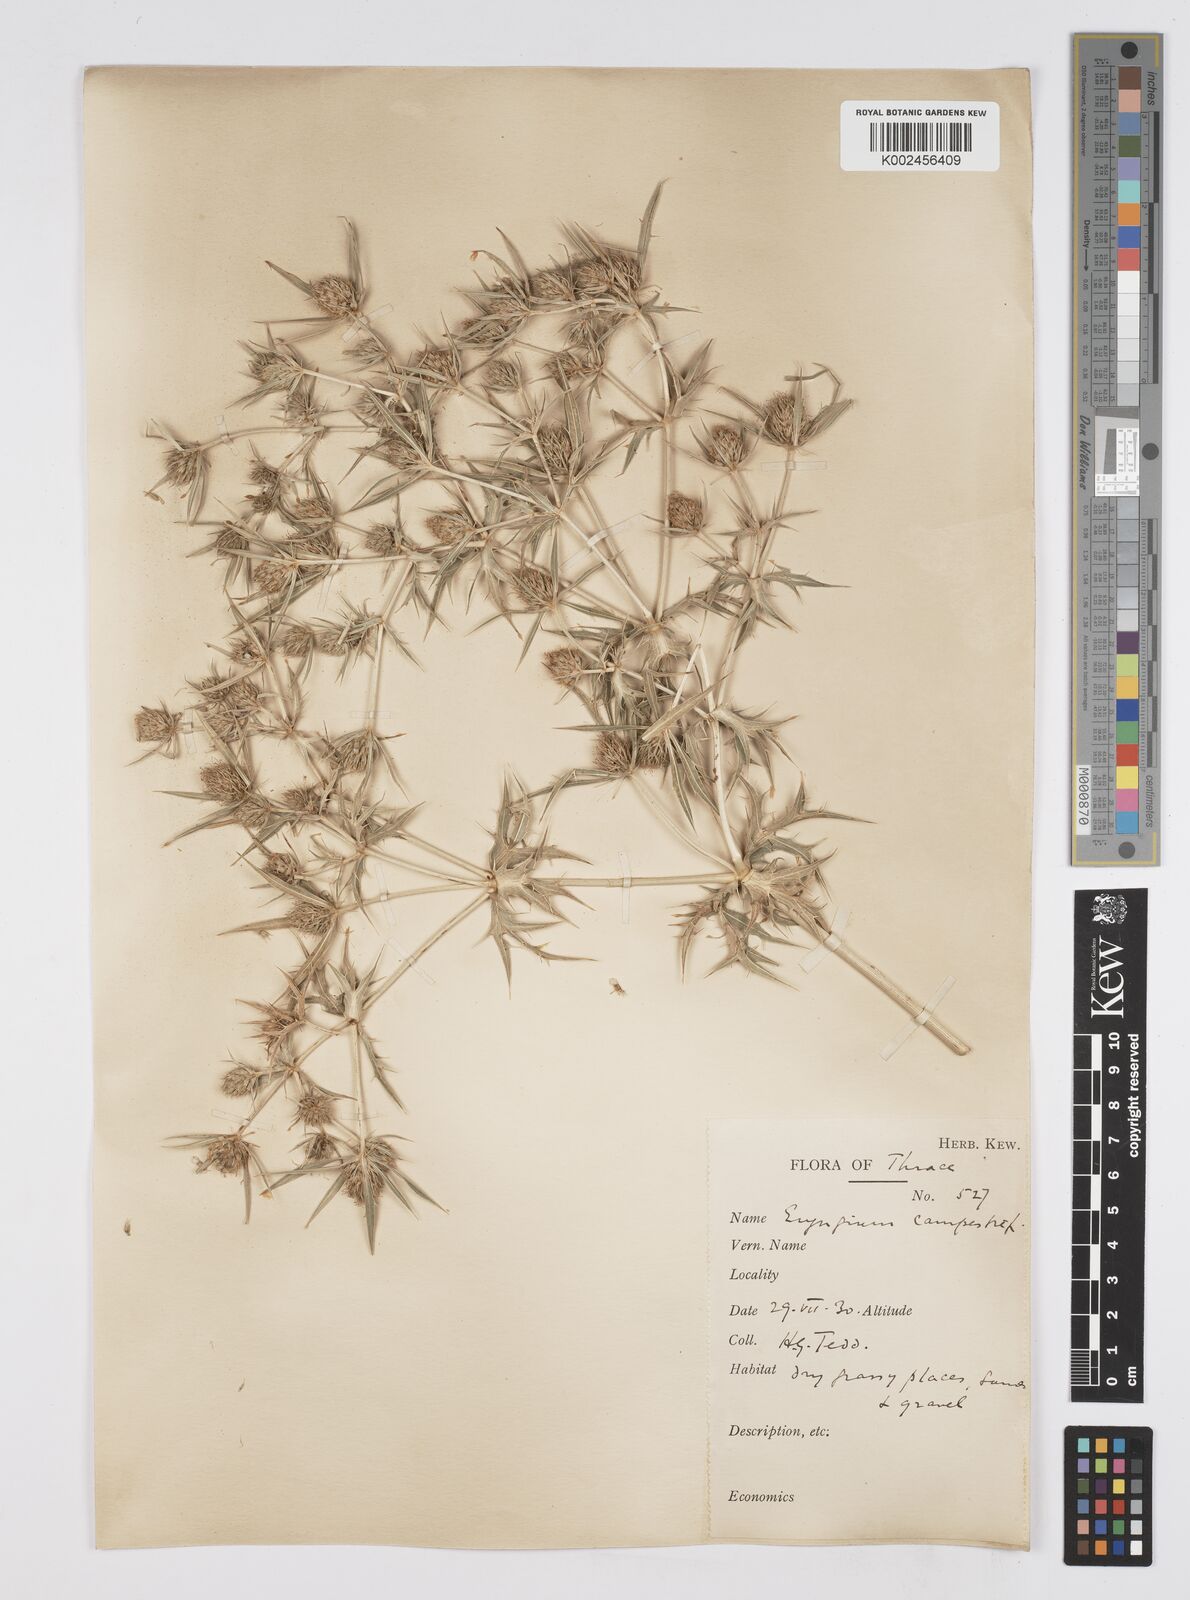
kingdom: Plantae
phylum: Tracheophyta
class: Magnoliopsida
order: Apiales
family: Apiaceae
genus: Eryngium
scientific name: Eryngium campestre
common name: Field eryngo
